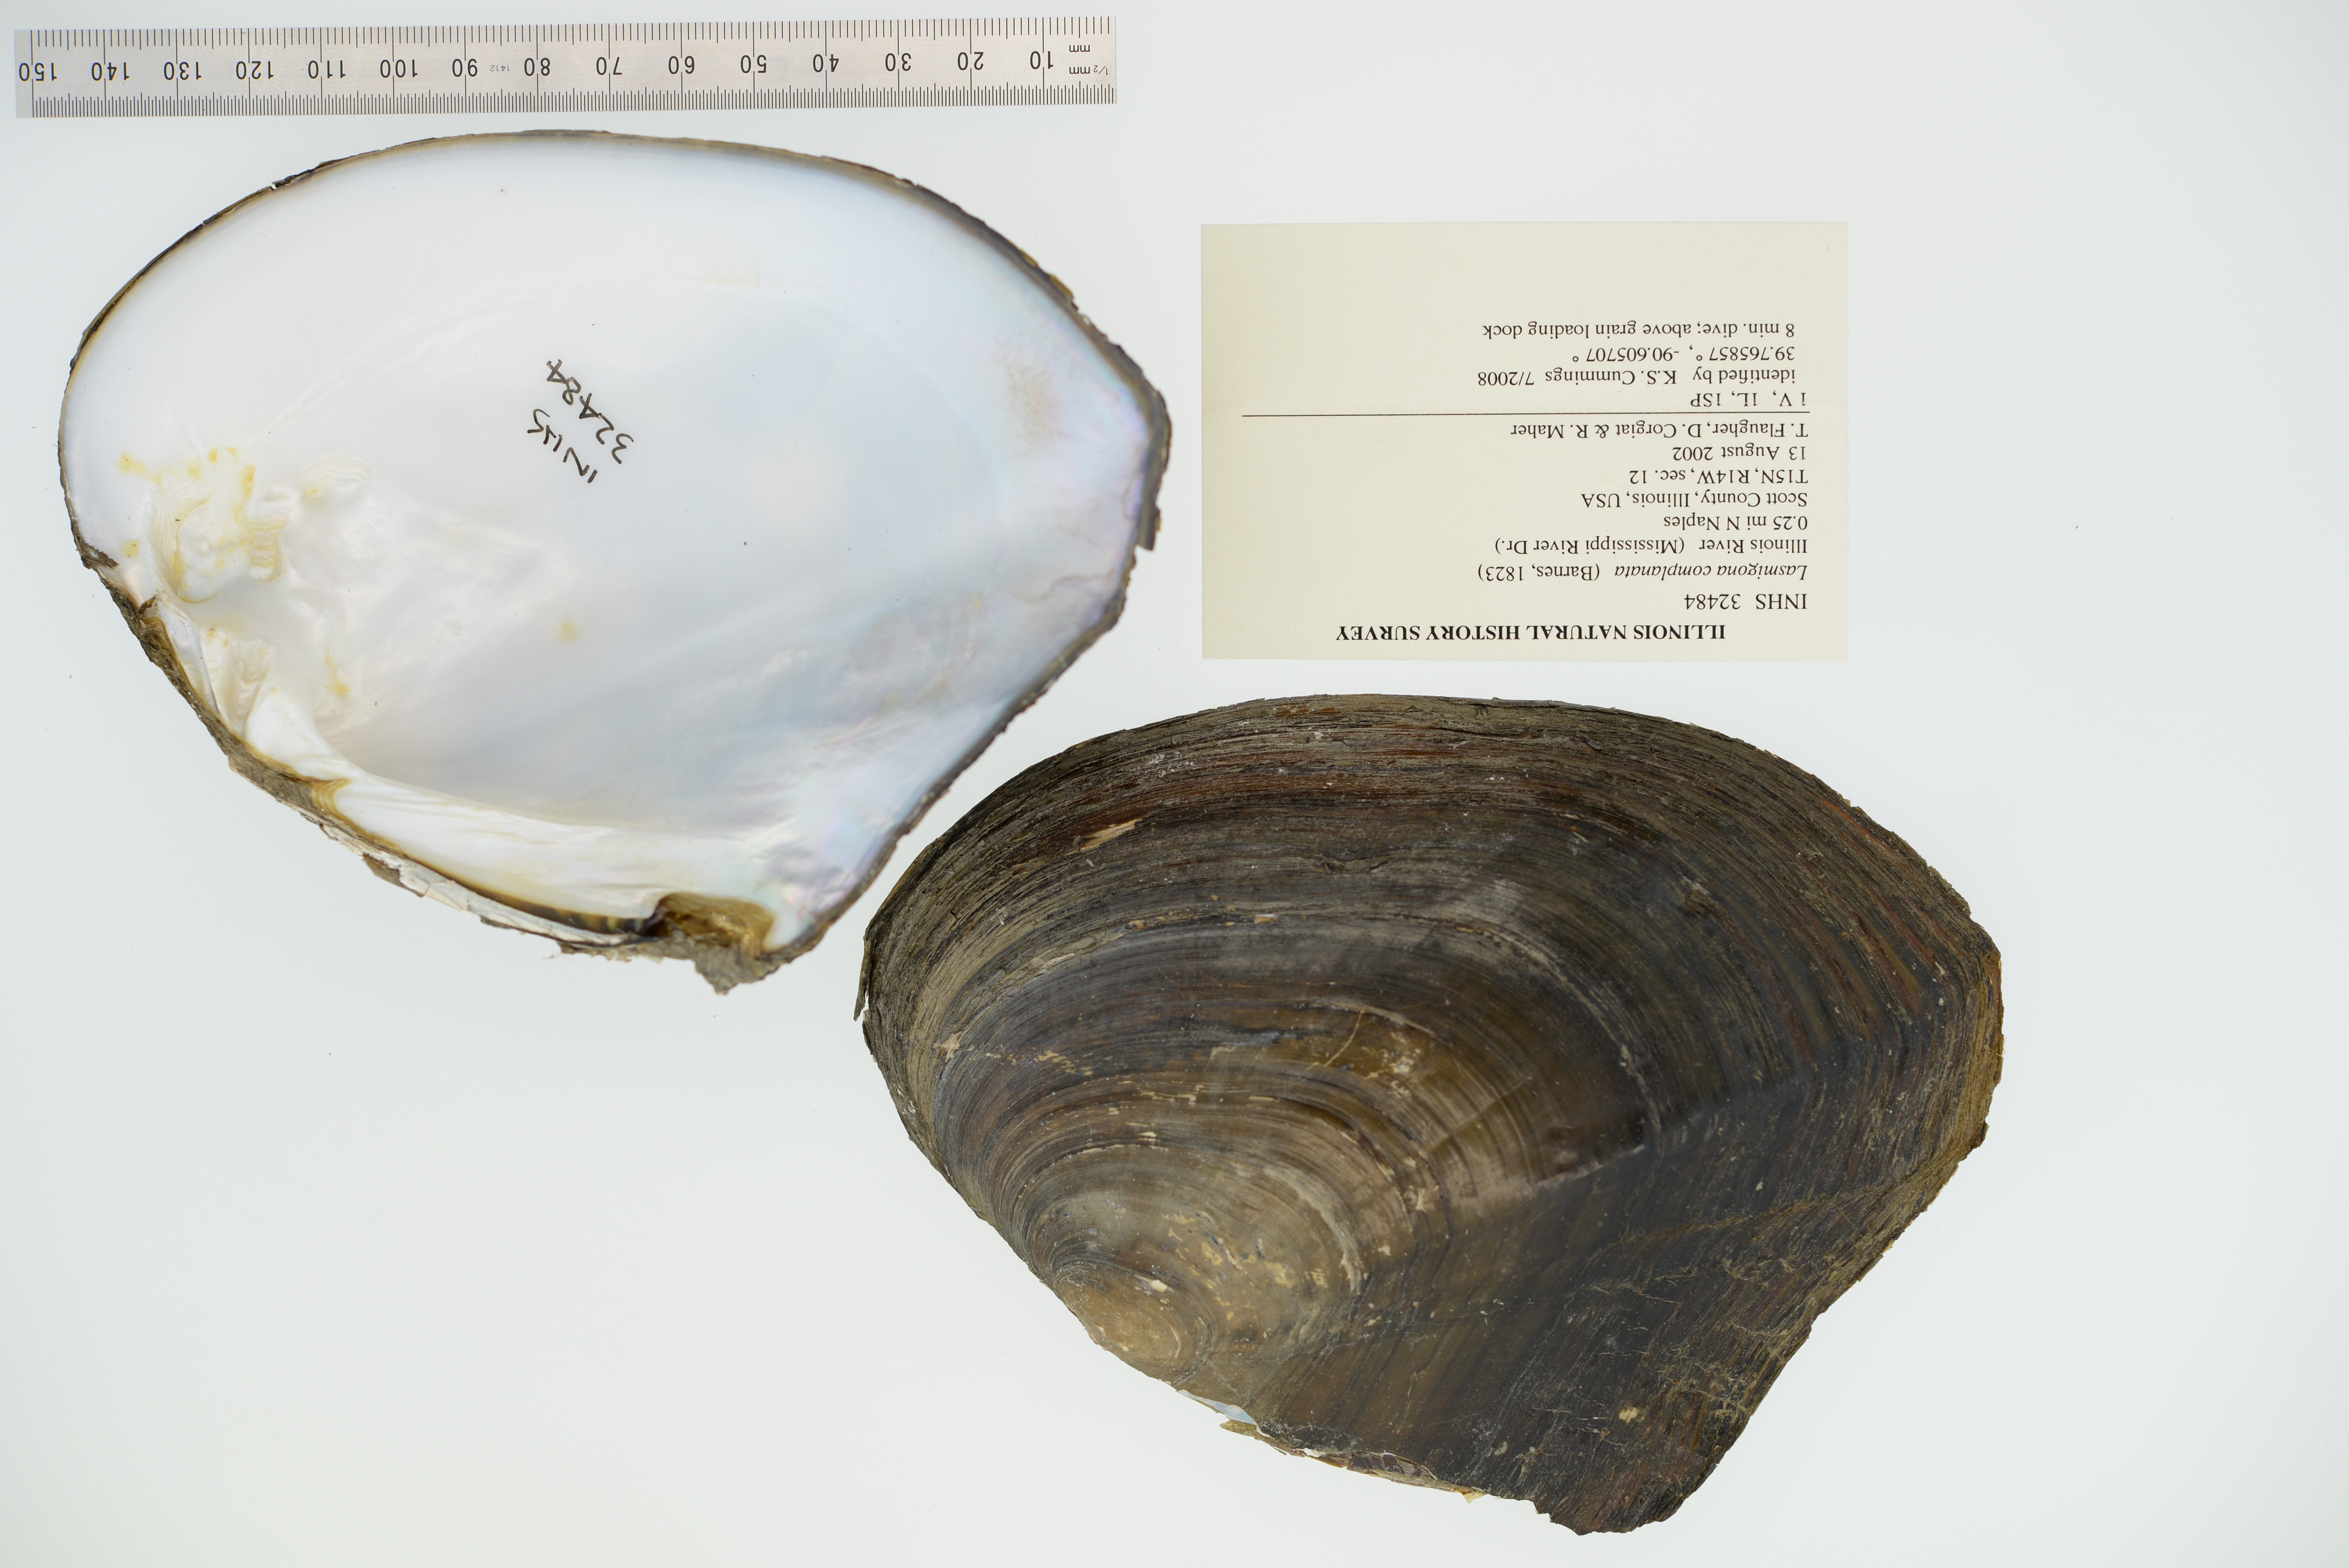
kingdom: Animalia
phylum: Mollusca
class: Bivalvia
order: Unionida
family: Unionidae
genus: Lasmigona
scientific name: Lasmigona complanata
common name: White heelsplitter
